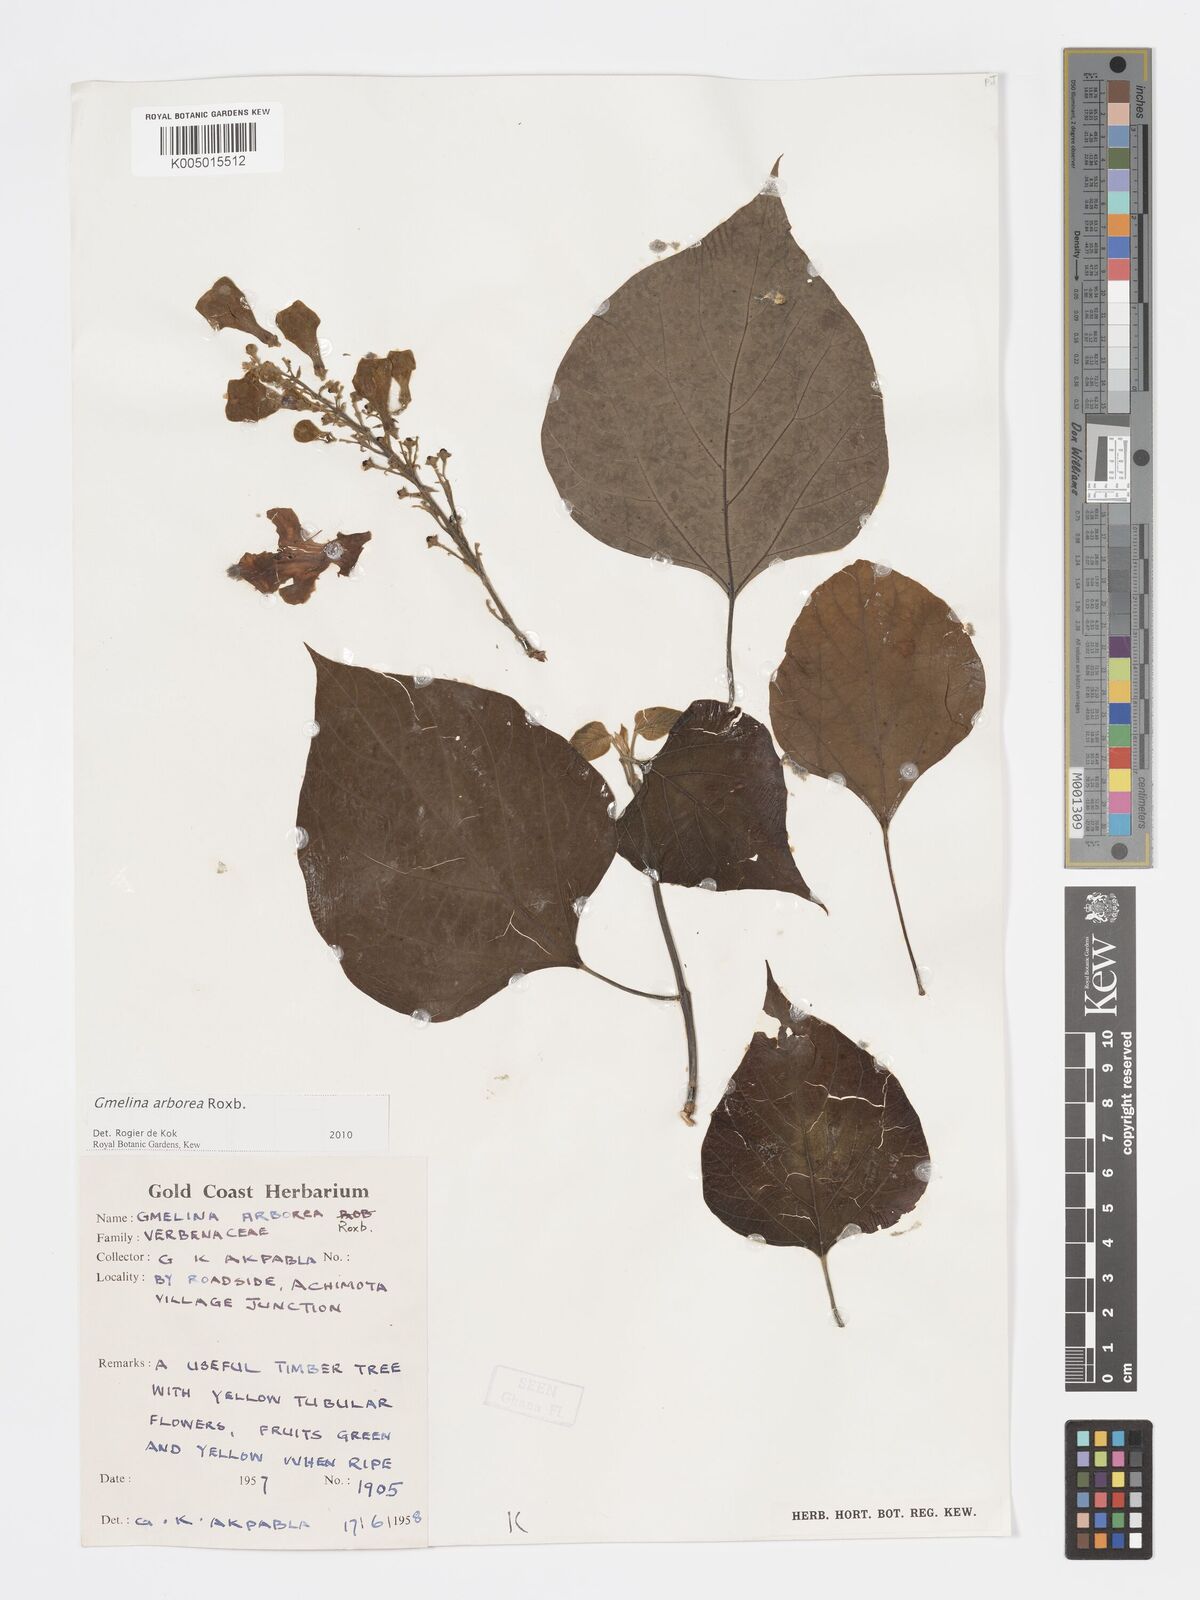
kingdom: Plantae
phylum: Tracheophyta
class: Magnoliopsida
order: Lamiales
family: Lamiaceae
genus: Gmelina
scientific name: Gmelina arborea
